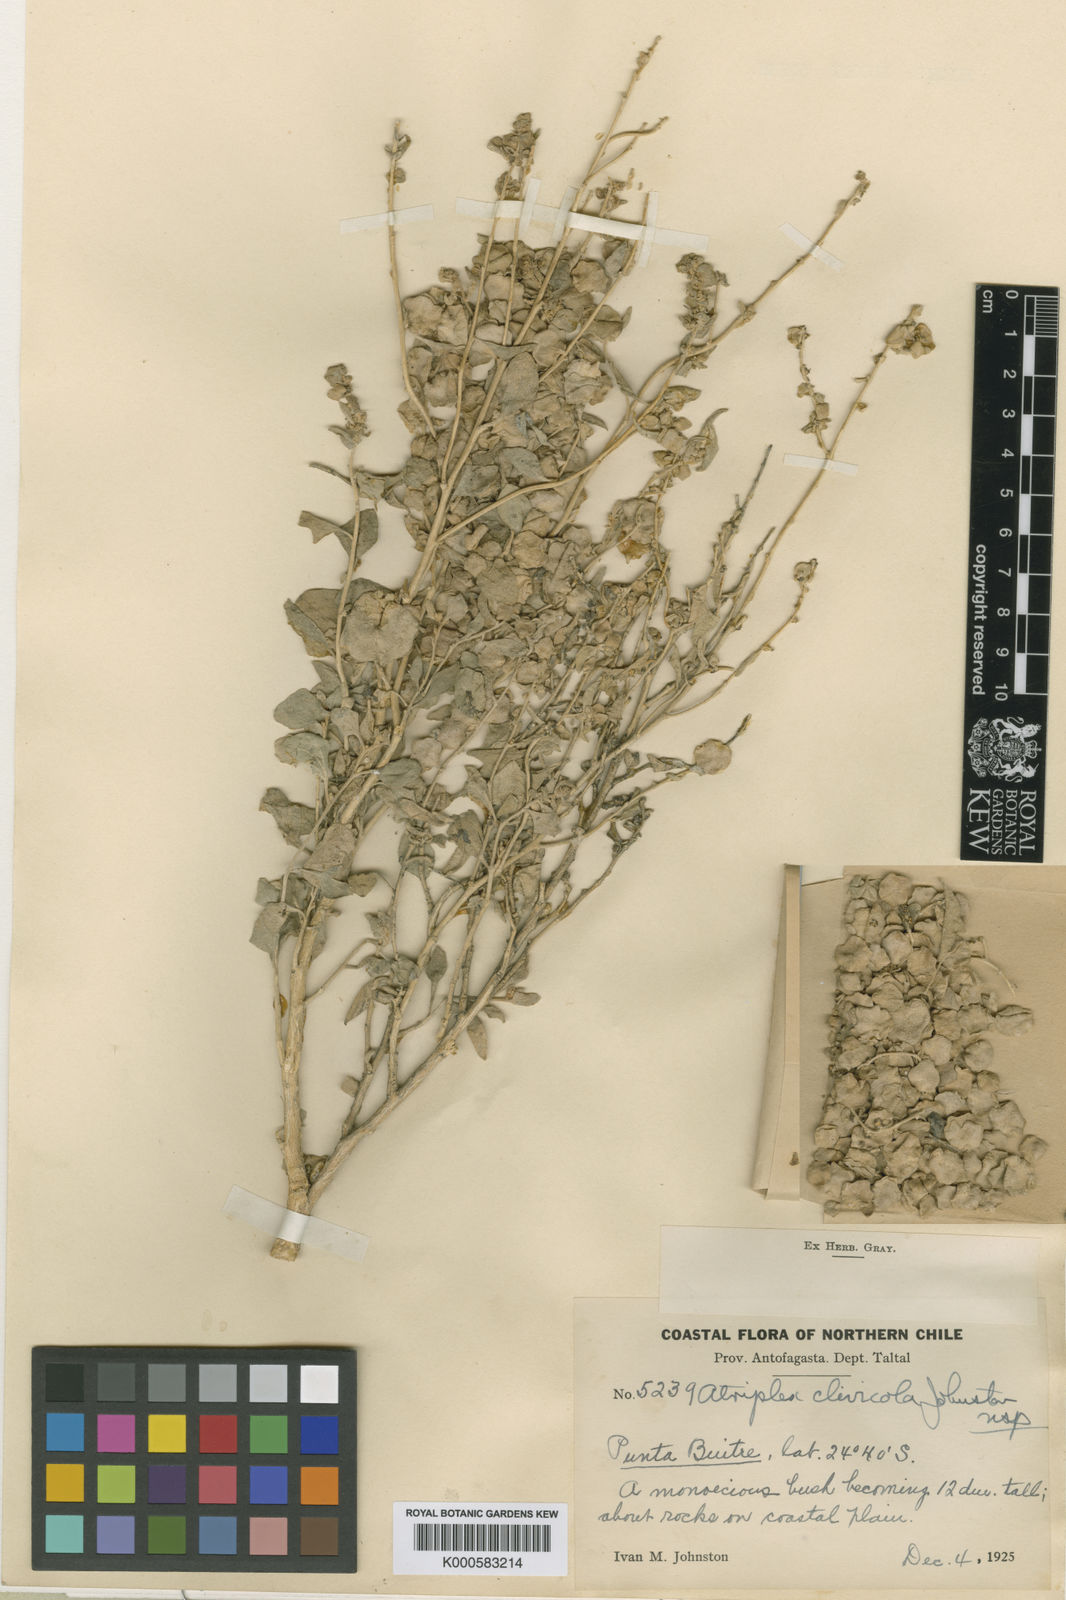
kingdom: Plantae
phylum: Tracheophyta
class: Magnoliopsida
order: Caryophyllales
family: Amaranthaceae
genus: Atriplex
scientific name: Atriplex clivicola
